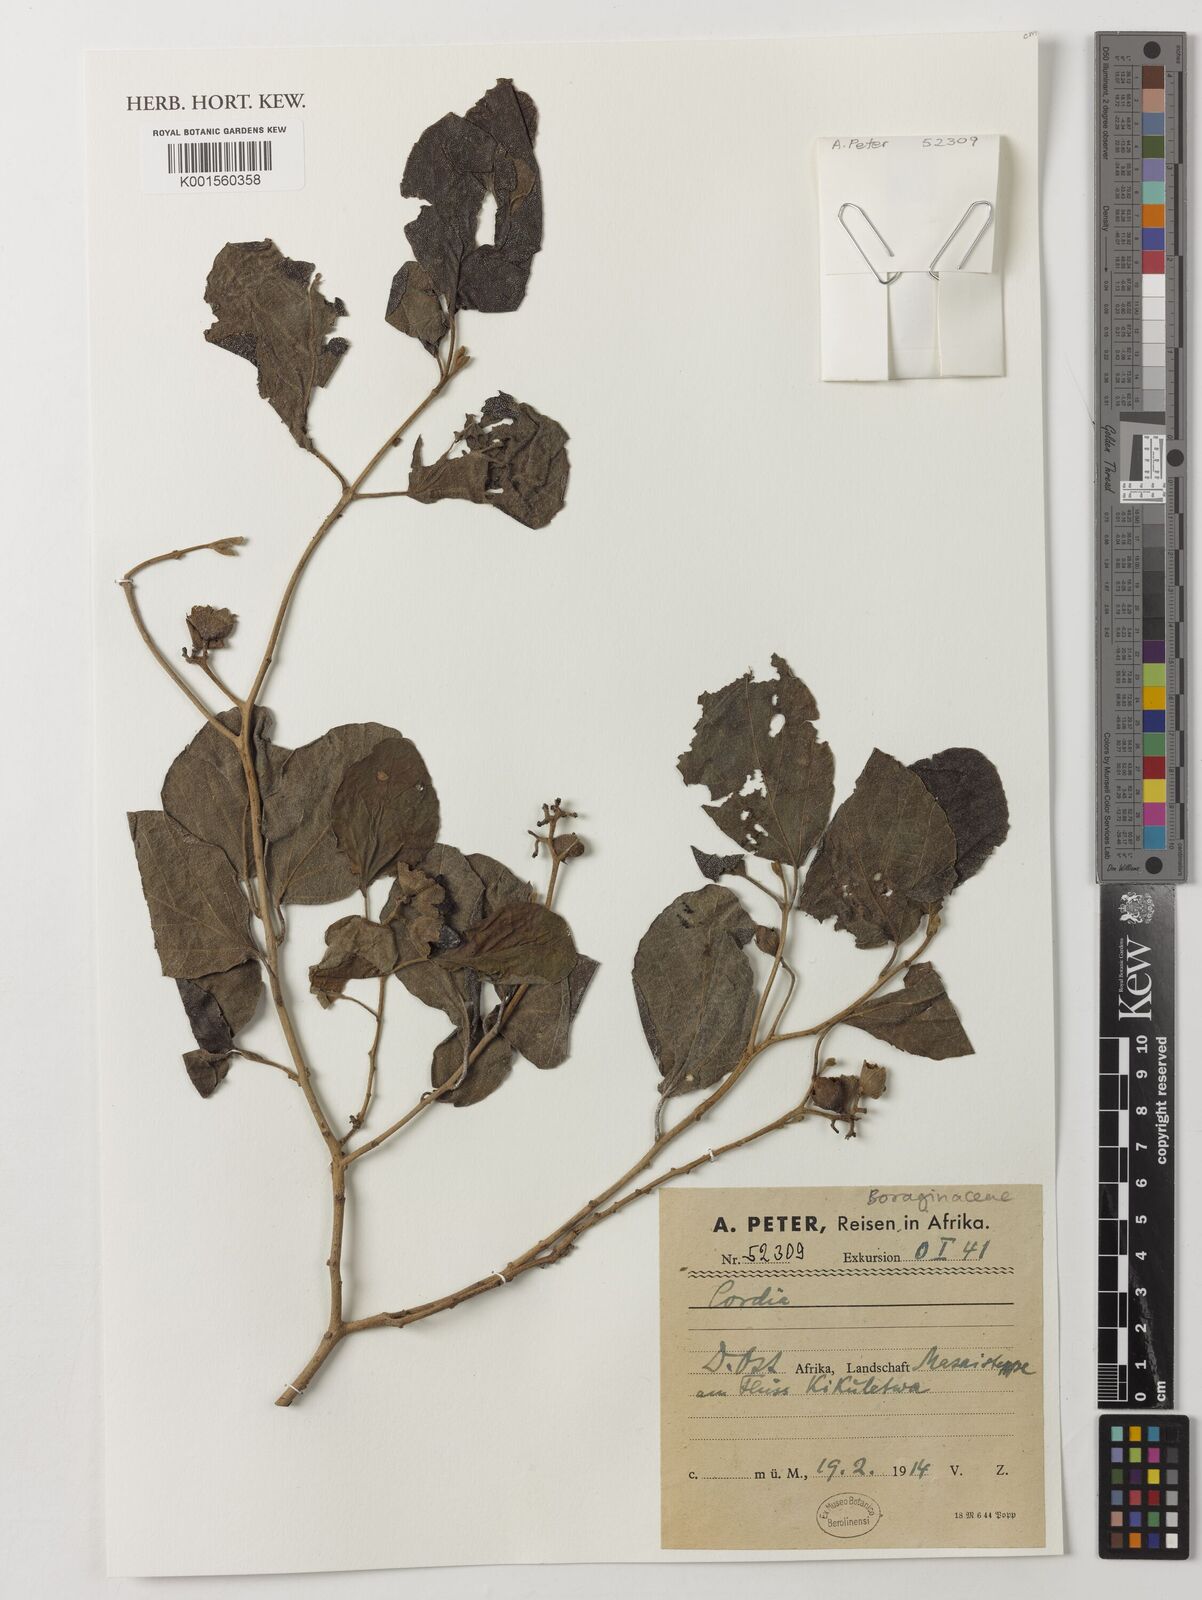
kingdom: Plantae
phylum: Tracheophyta
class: Magnoliopsida
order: Boraginales
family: Cordiaceae
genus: Cordia
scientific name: Cordia
